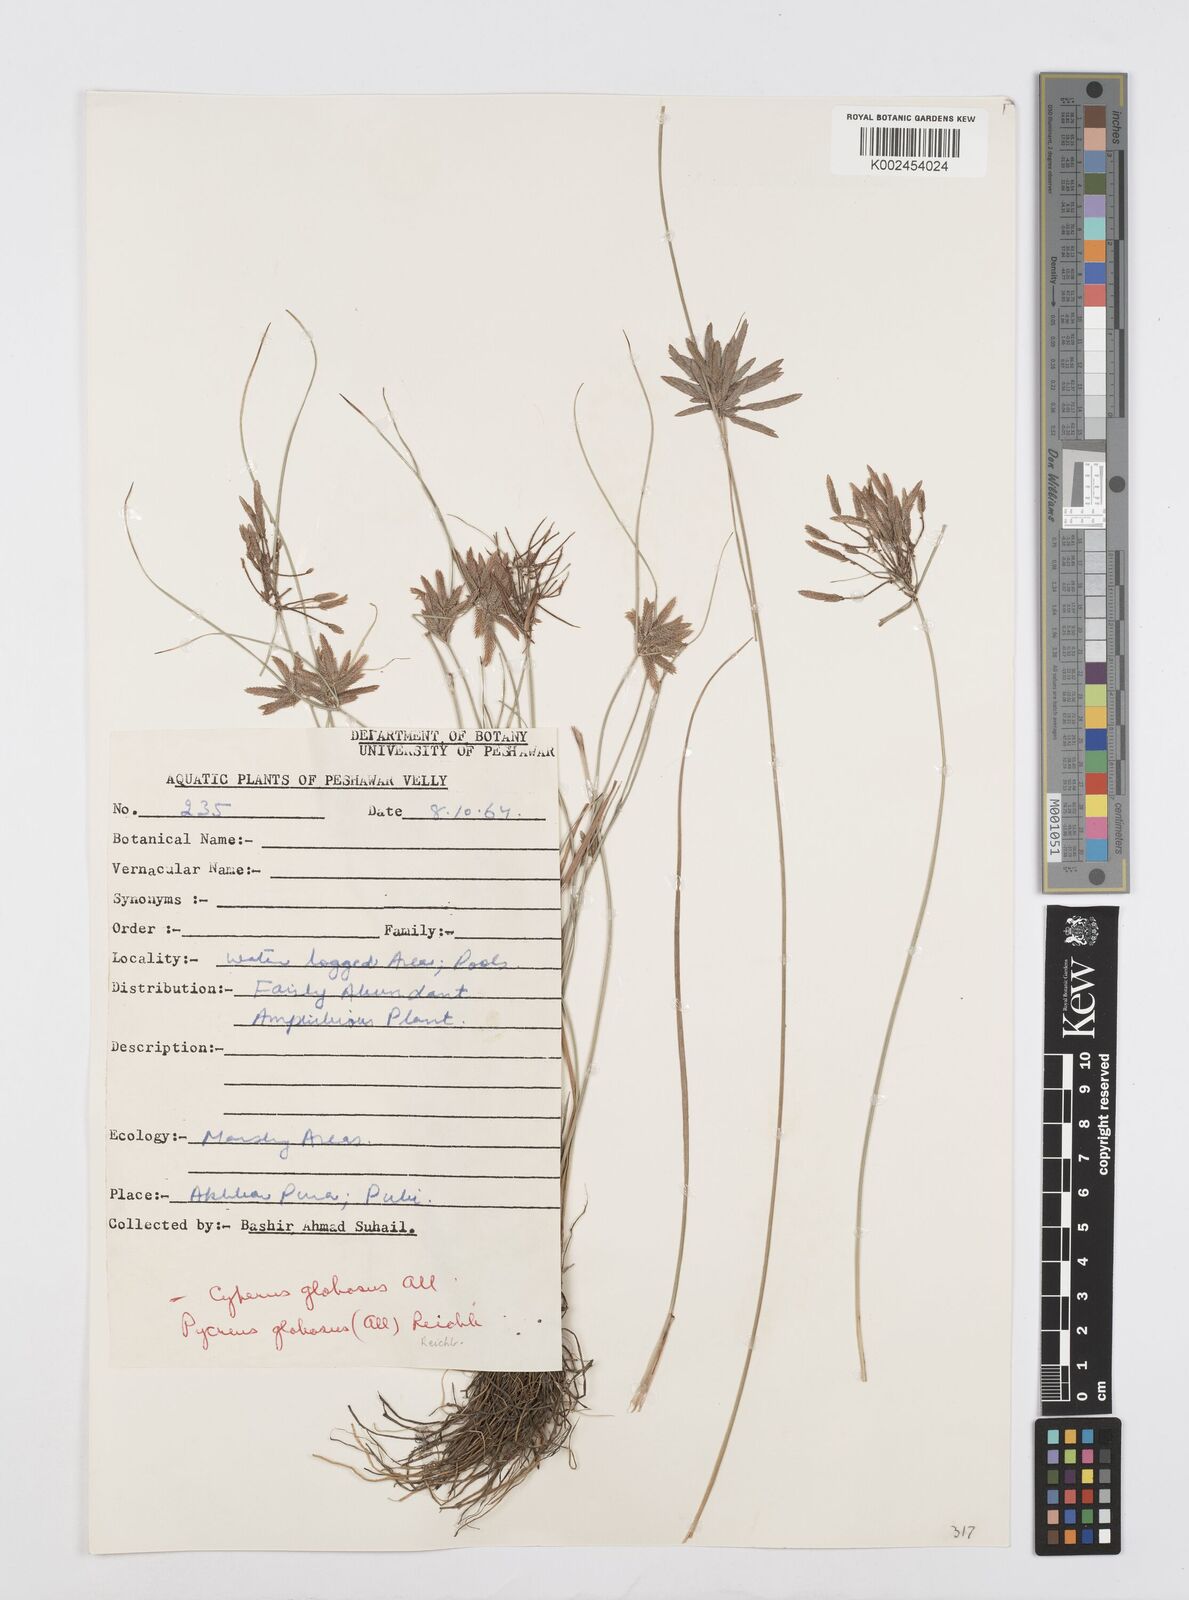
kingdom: Plantae
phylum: Tracheophyta
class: Liliopsida
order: Poales
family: Cyperaceae
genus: Cyperus
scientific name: Cyperus flavidus
